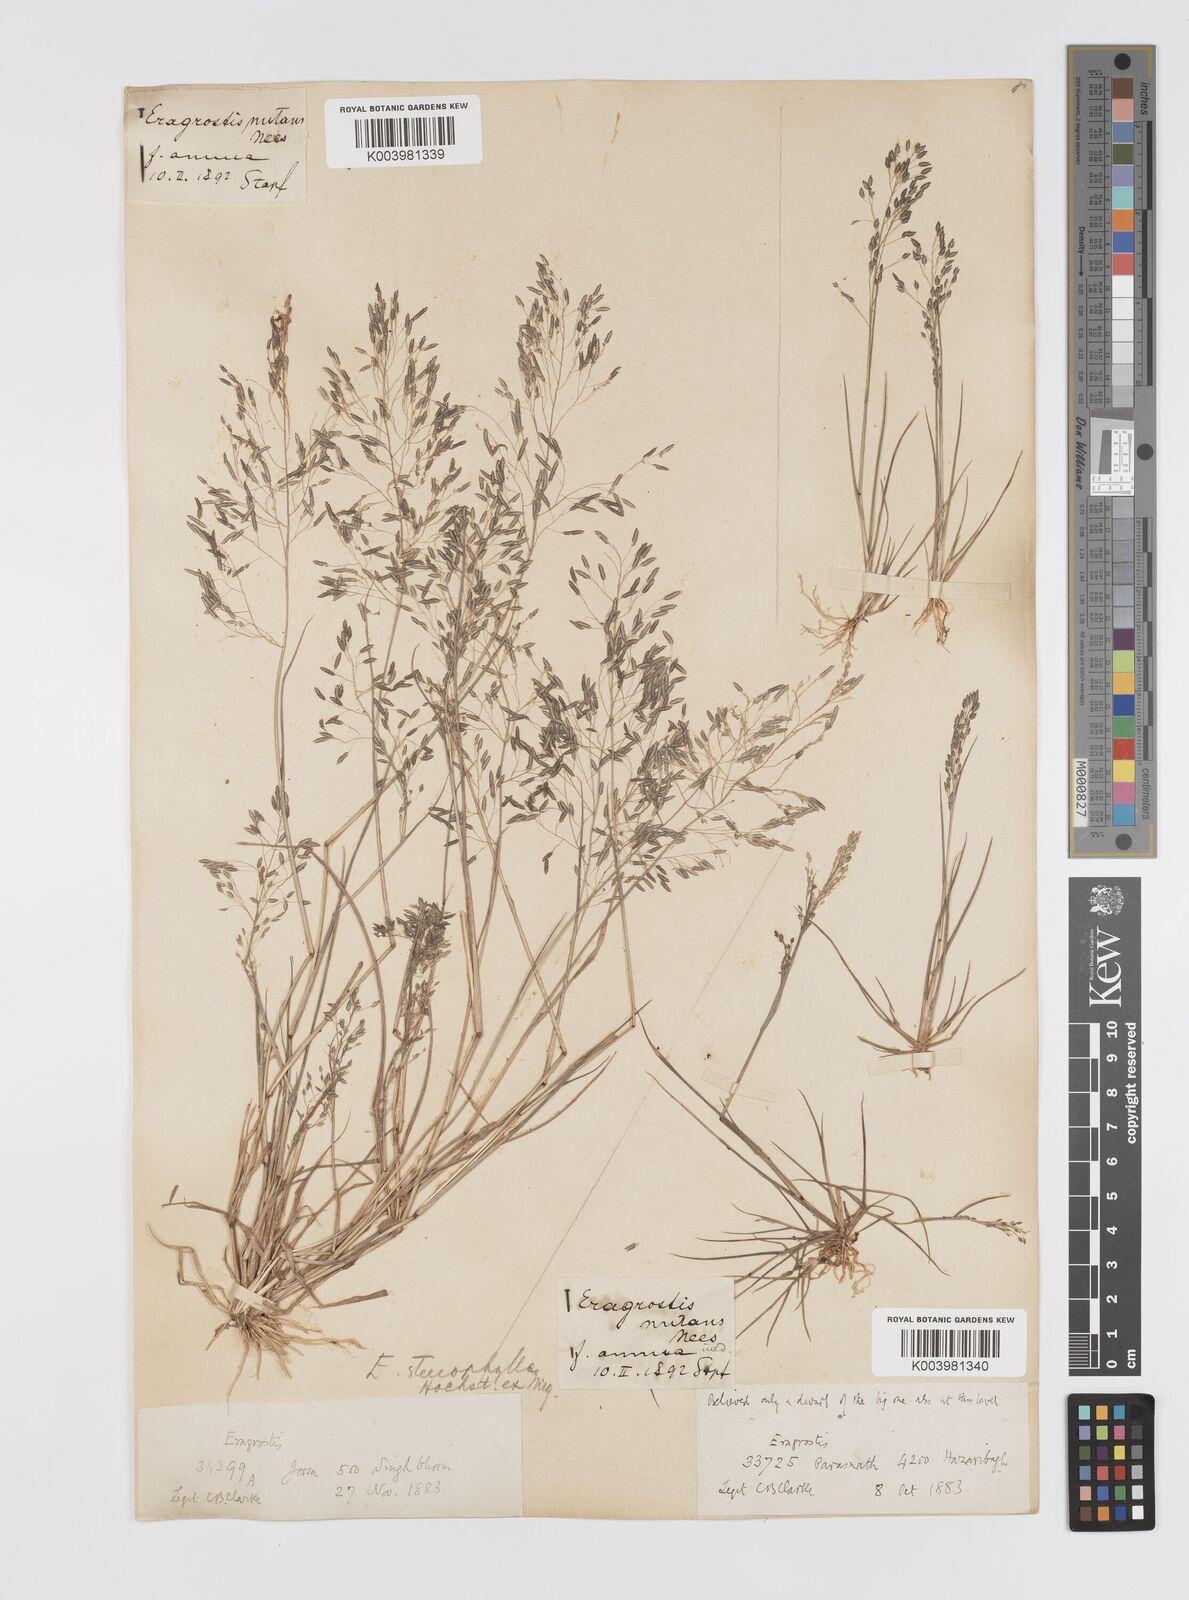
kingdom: Plantae
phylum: Tracheophyta
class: Liliopsida
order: Poales
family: Poaceae
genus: Eragrostis
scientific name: Eragrostis gangetica
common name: Slimflower lovegrass
